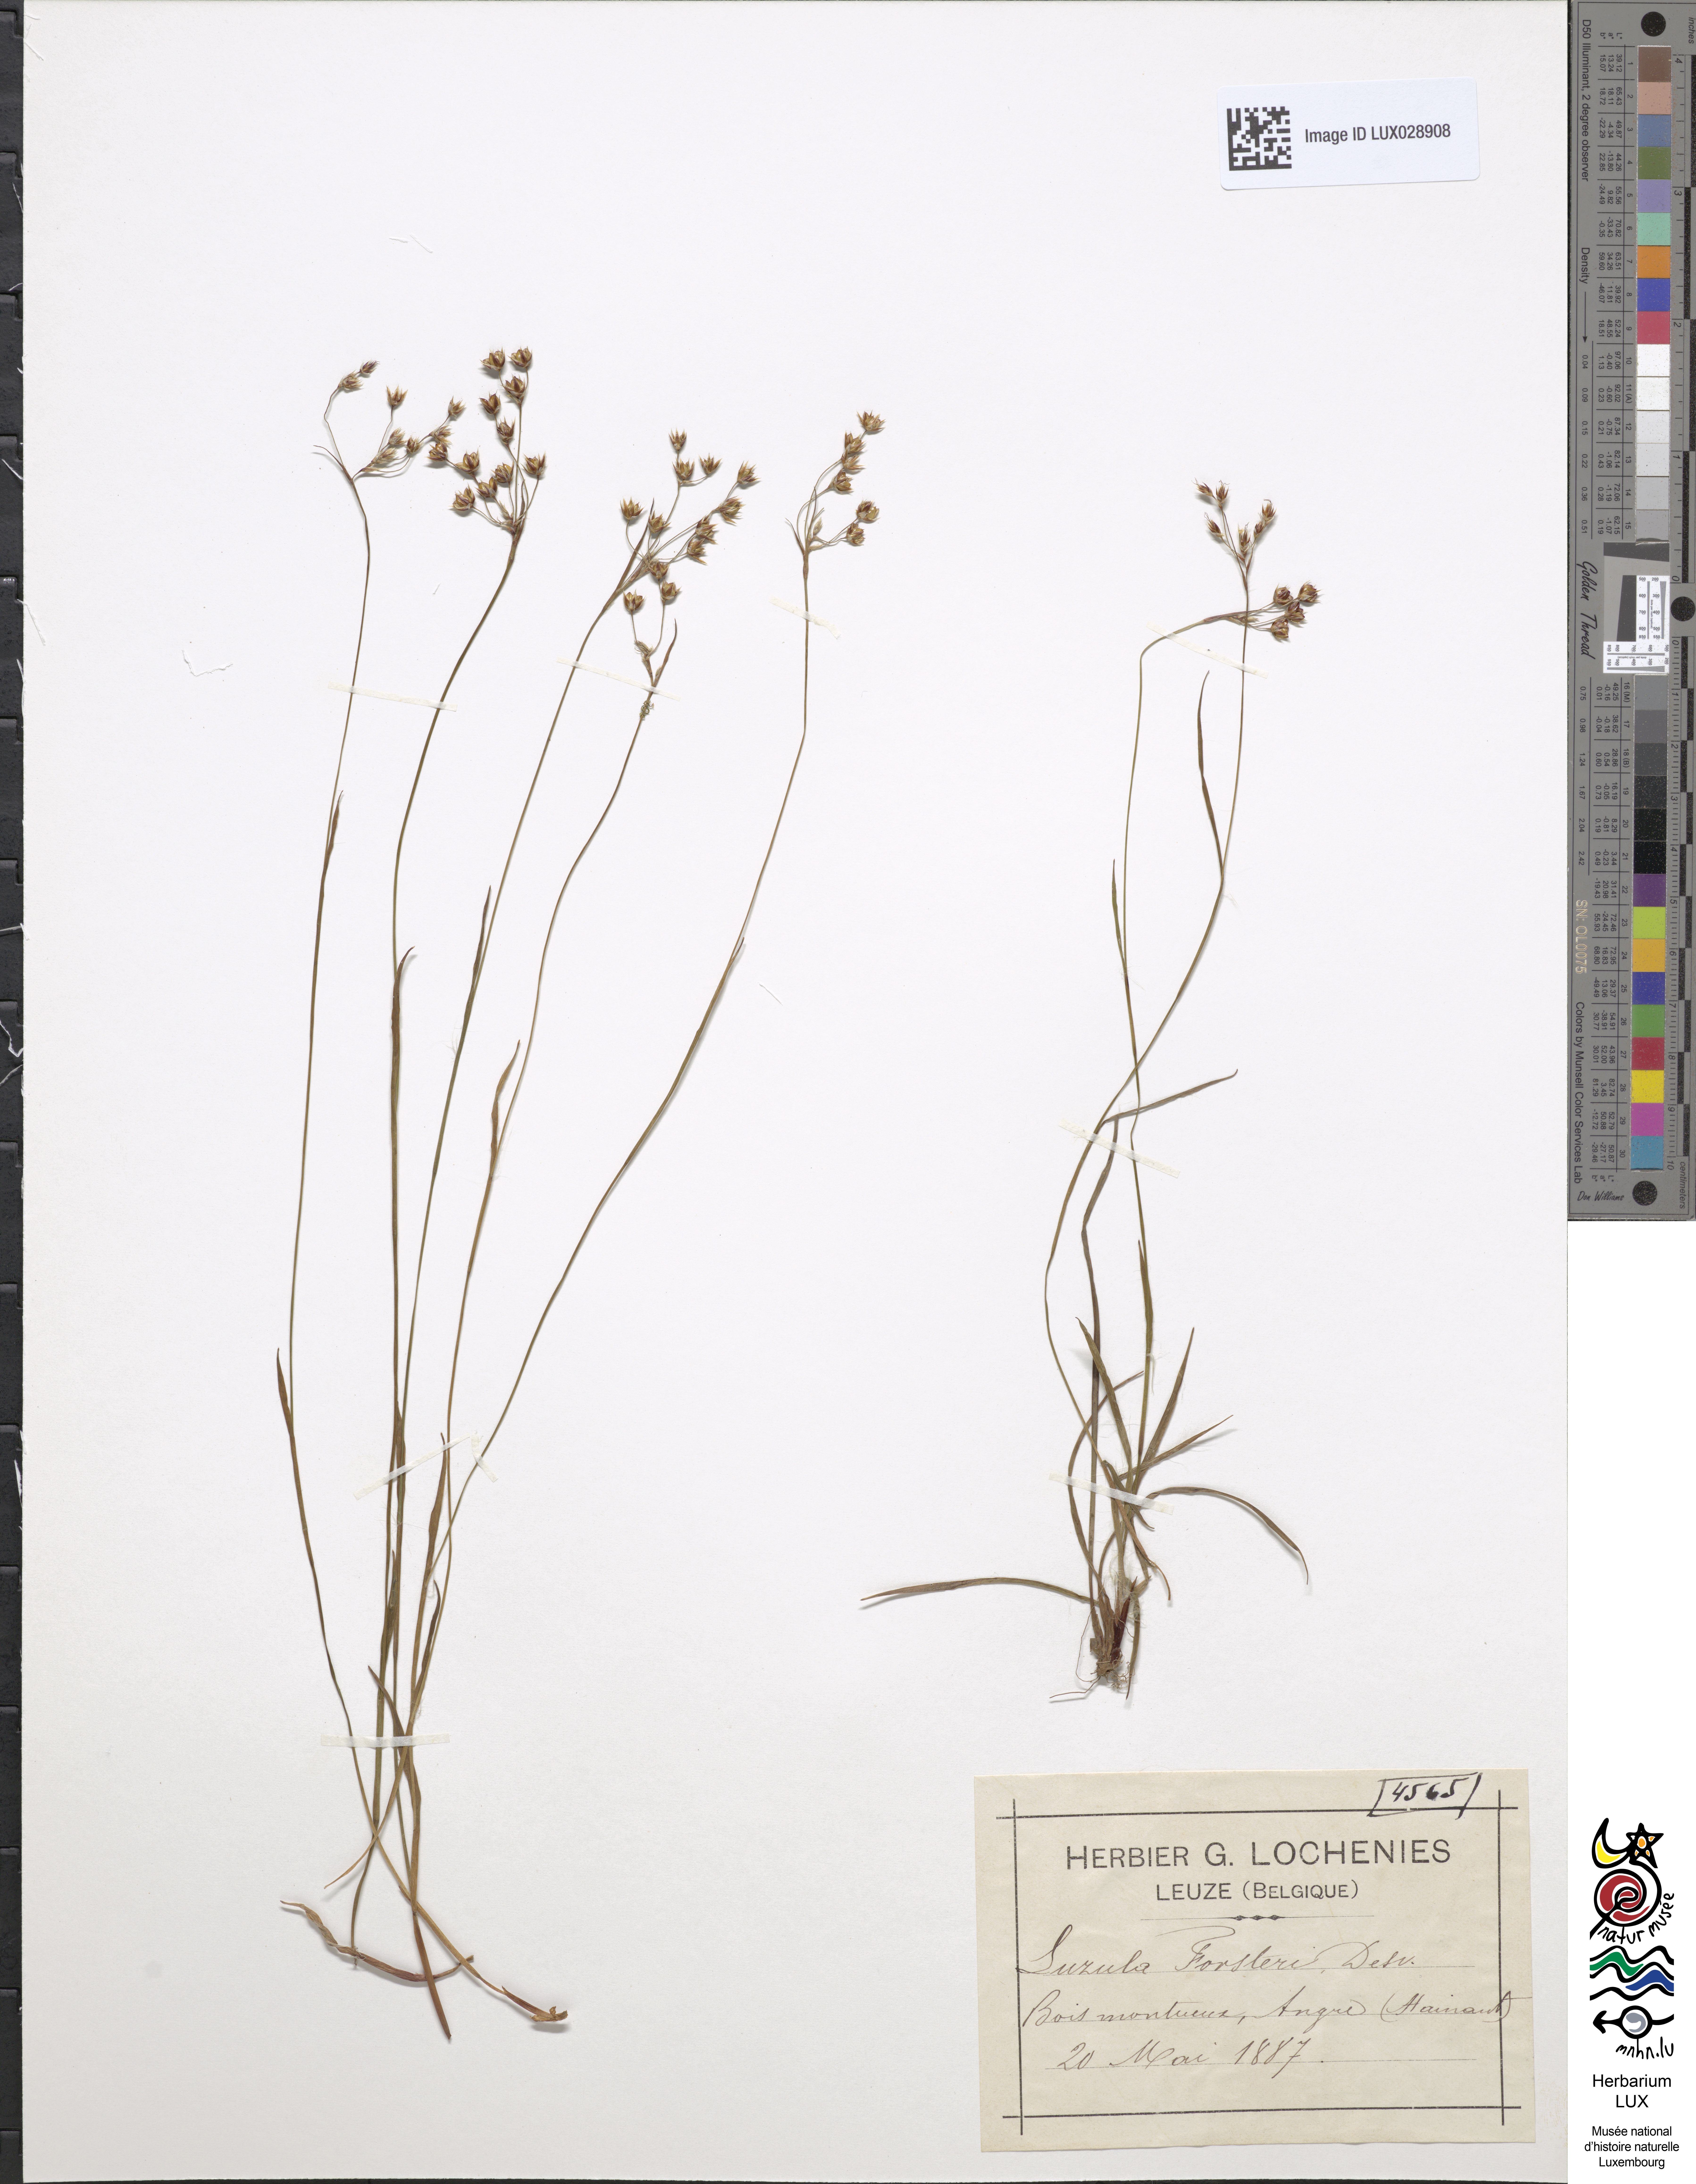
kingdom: Plantae
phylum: Tracheophyta
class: Liliopsida
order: Poales
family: Juncaceae
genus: Luzula
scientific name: Luzula forsteri
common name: Southern wood-rush
